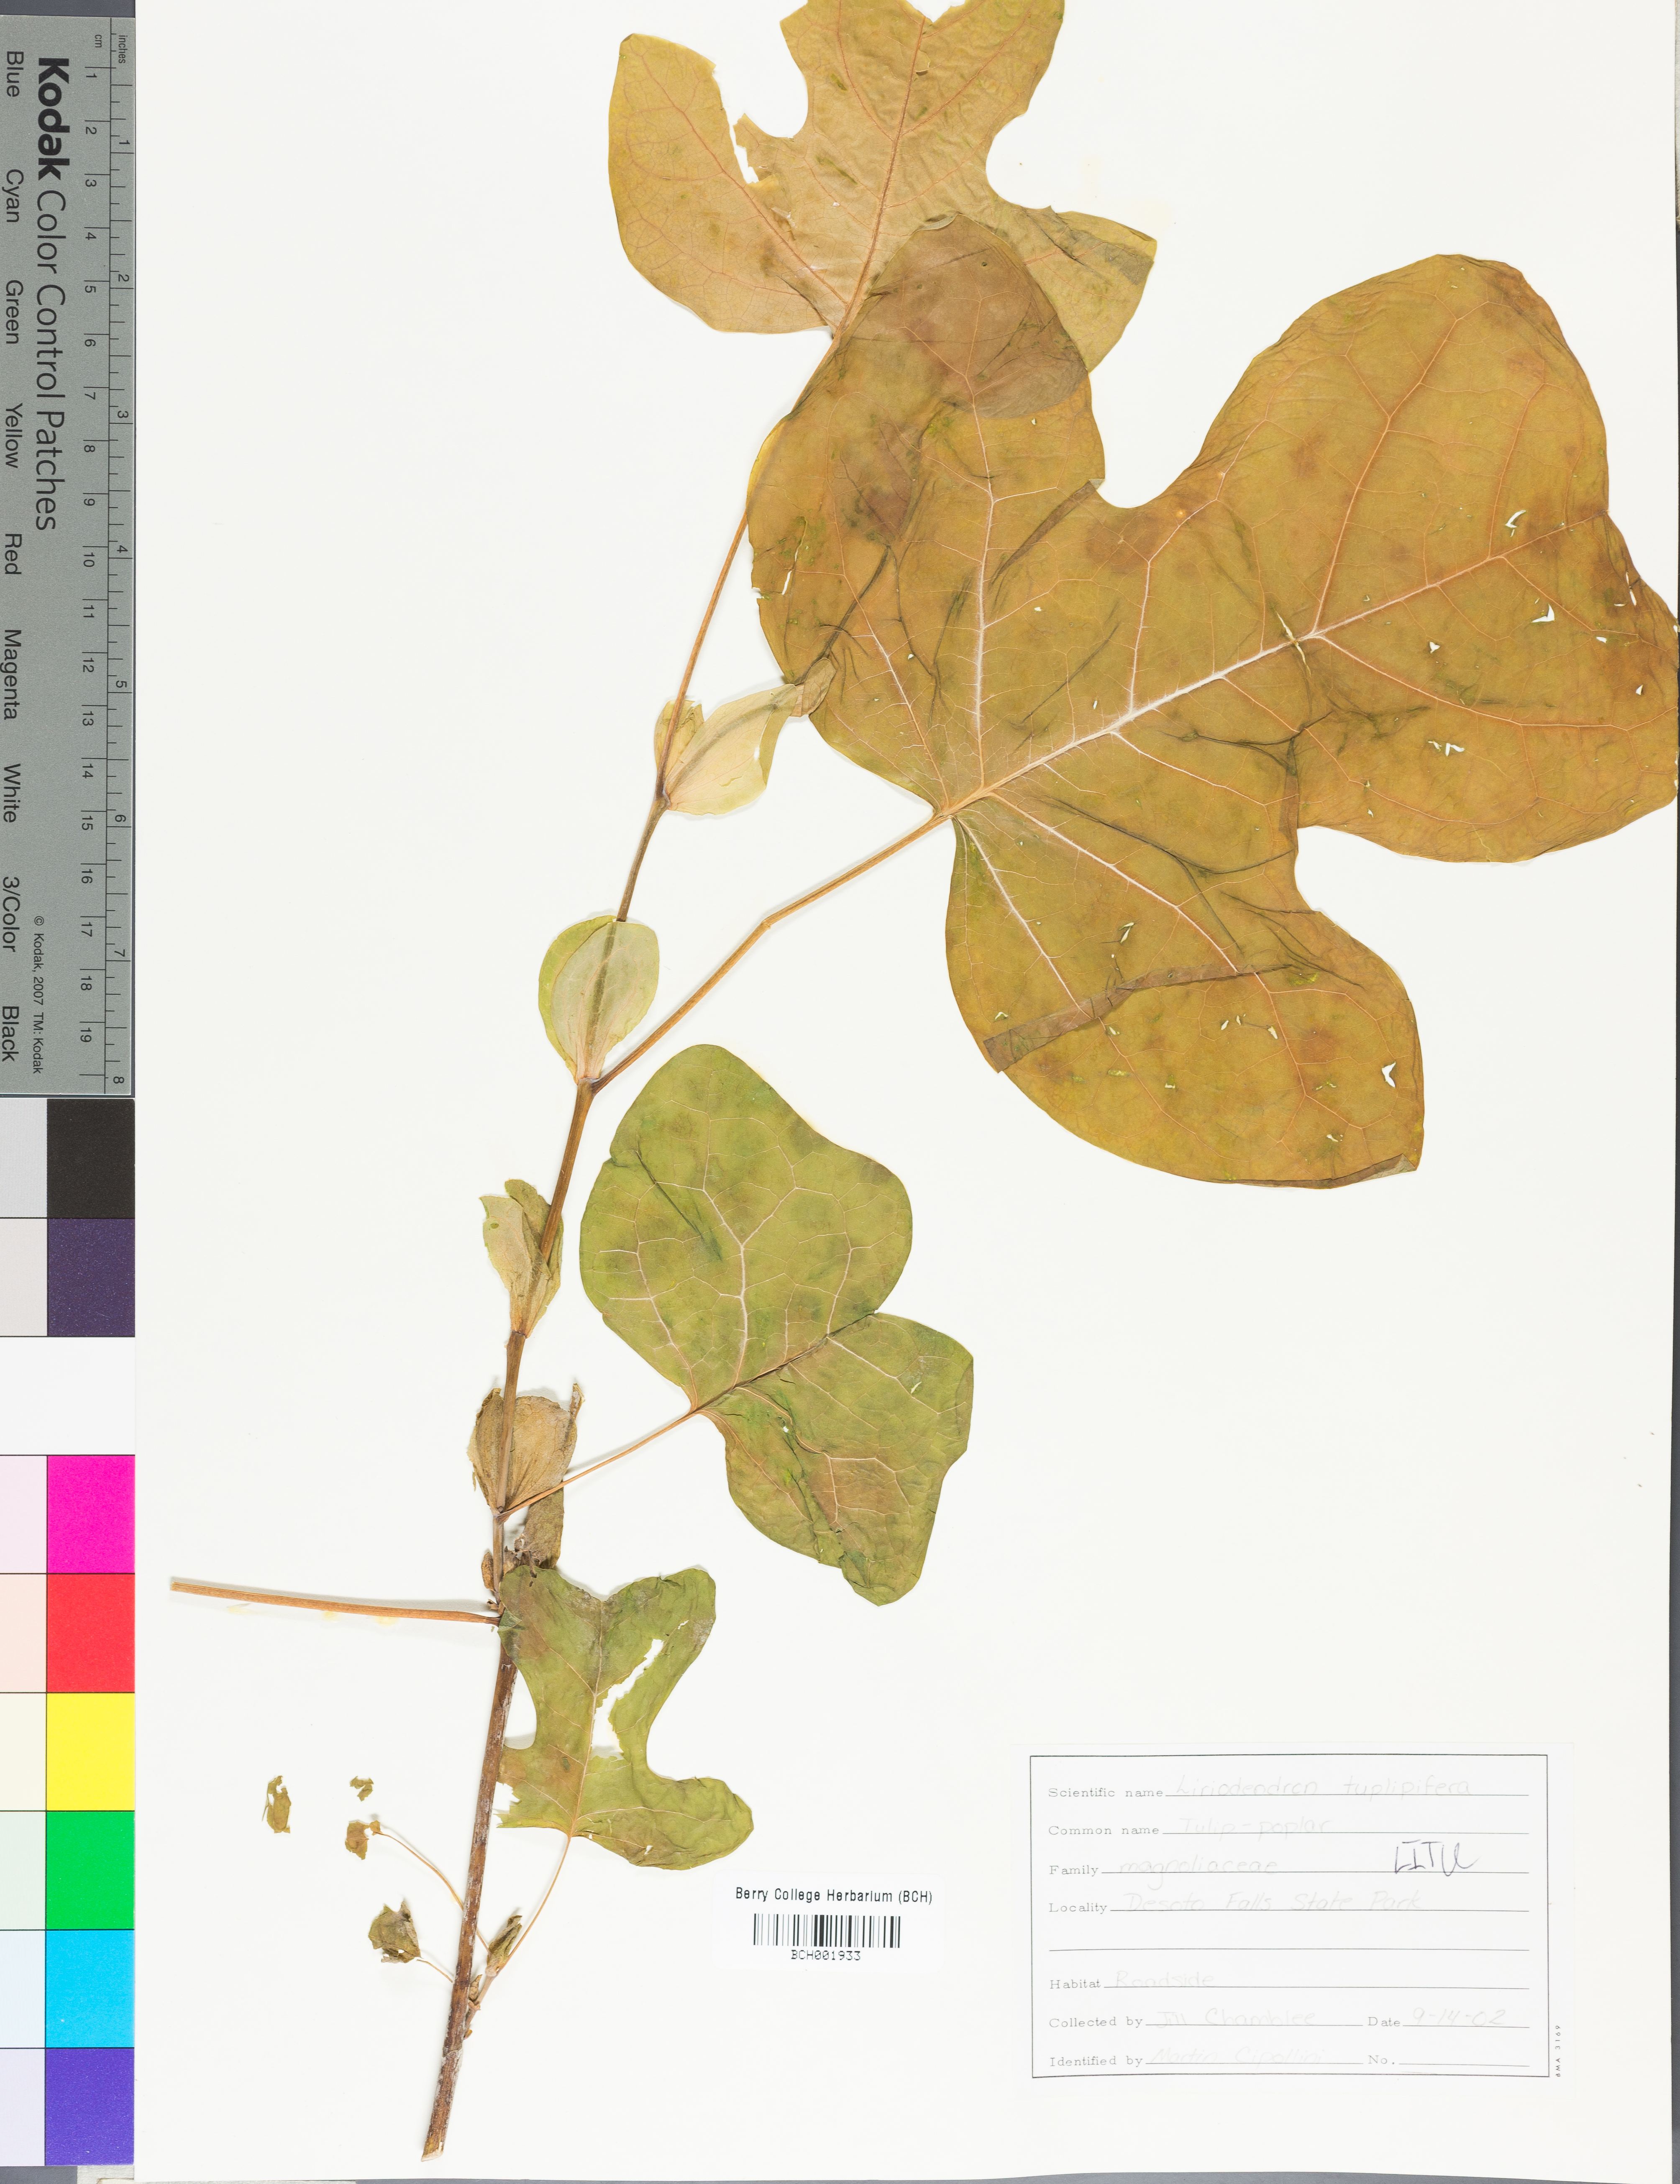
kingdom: Plantae
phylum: Tracheophyta
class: Magnoliopsida
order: Magnoliales
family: Magnoliaceae
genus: Liriodendron
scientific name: Liriodendron tulipifera
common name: Tulip tree
